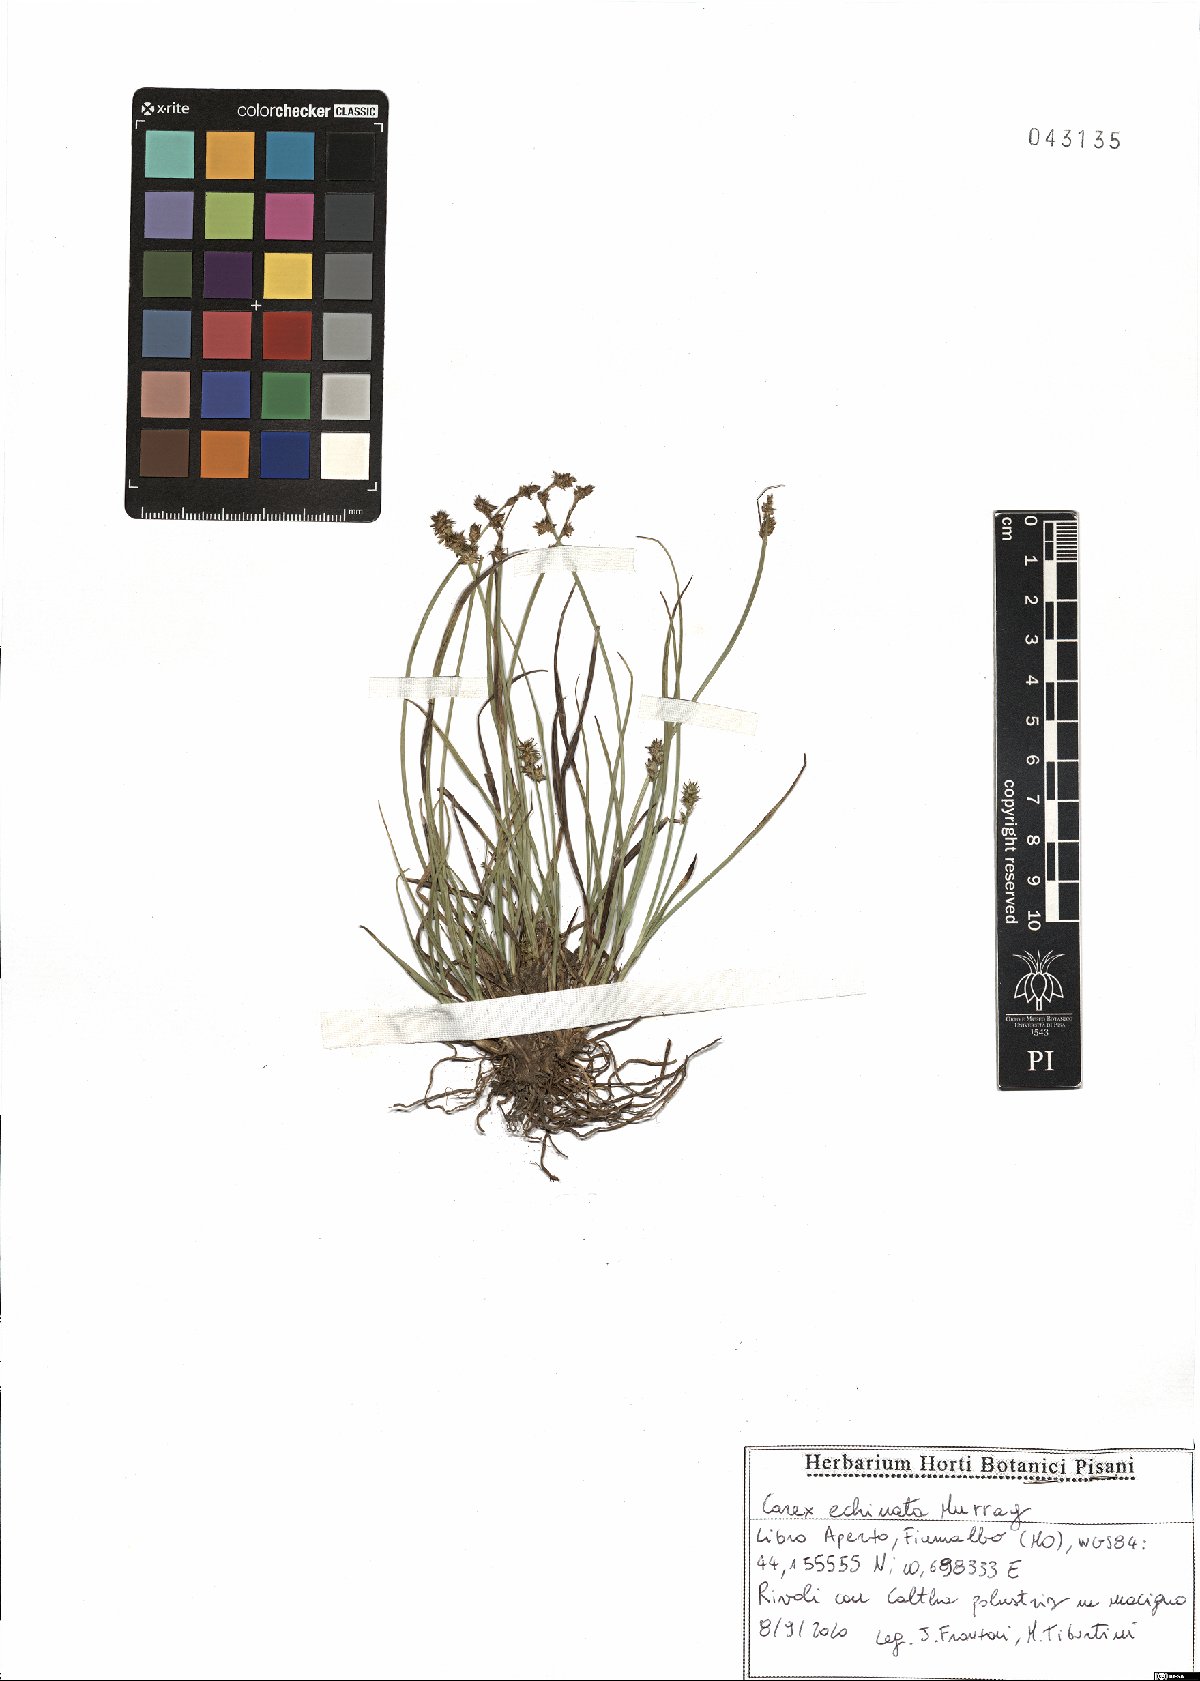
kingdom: Plantae
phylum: Tracheophyta
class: Liliopsida
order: Poales
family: Cyperaceae
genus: Carex
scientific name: Carex echinata
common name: Star sedge
